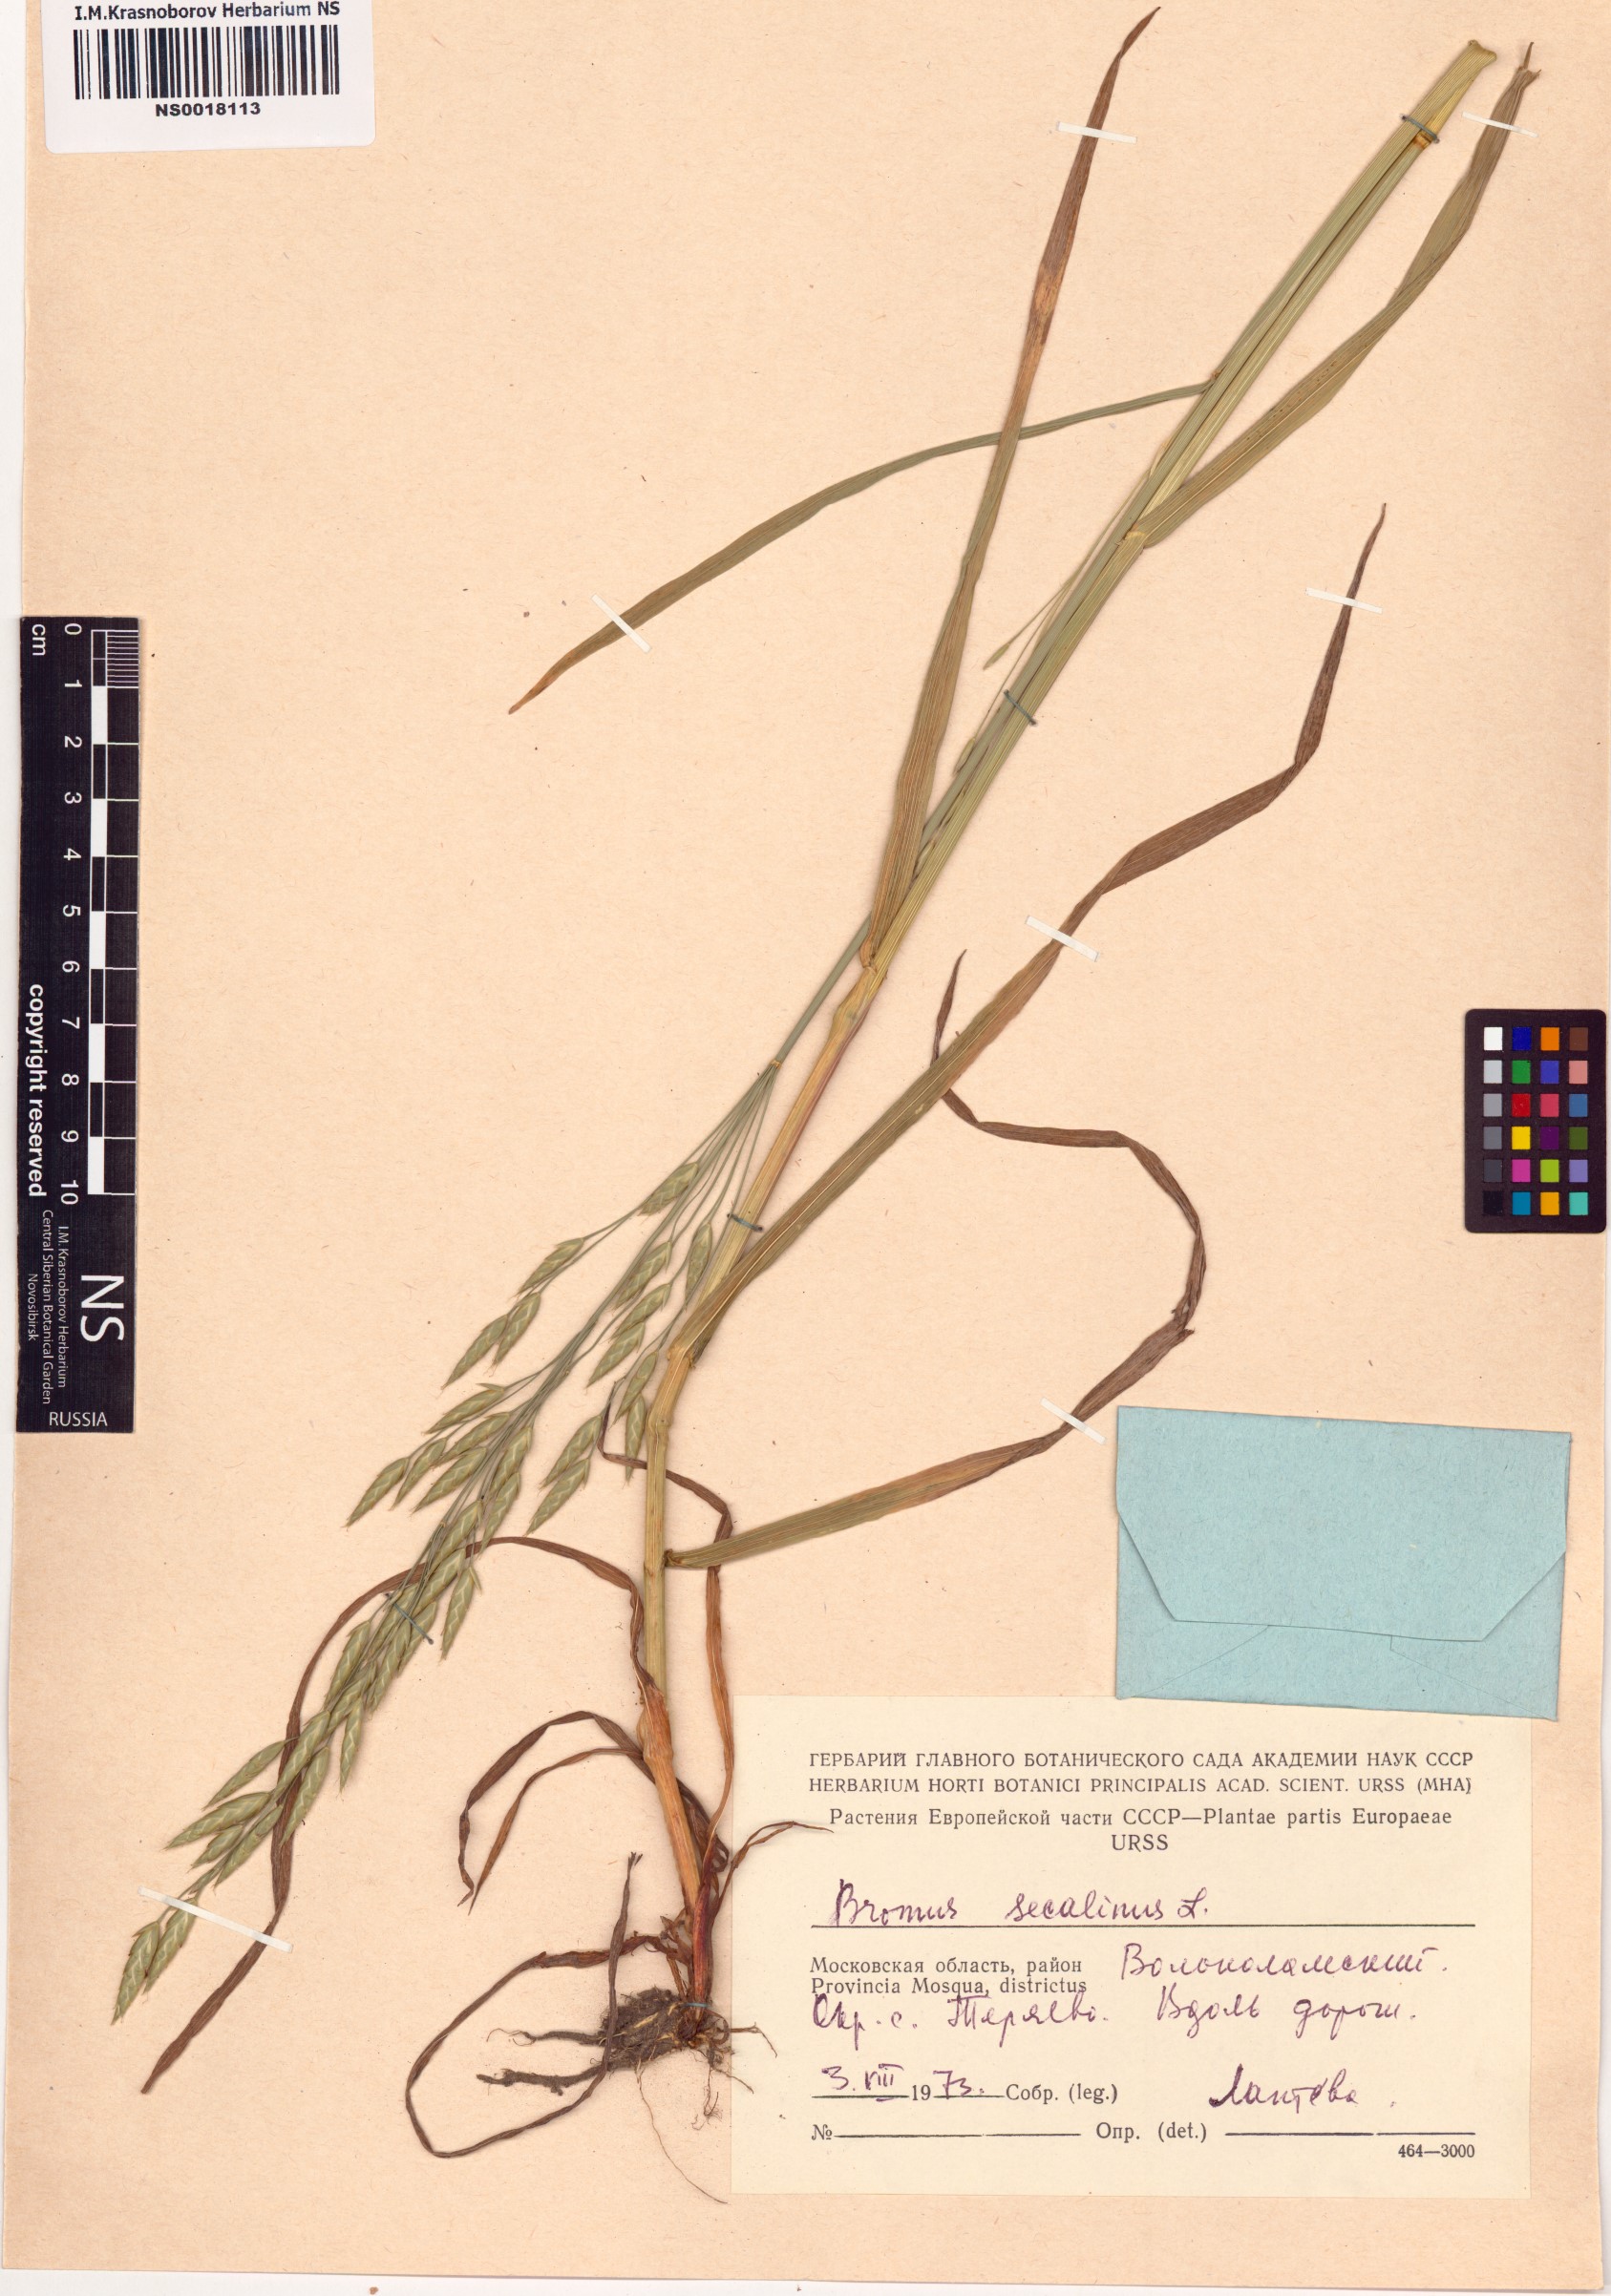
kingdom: Plantae
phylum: Tracheophyta
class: Liliopsida
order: Poales
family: Poaceae
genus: Bromus
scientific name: Bromus secalinus
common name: Rye brome
